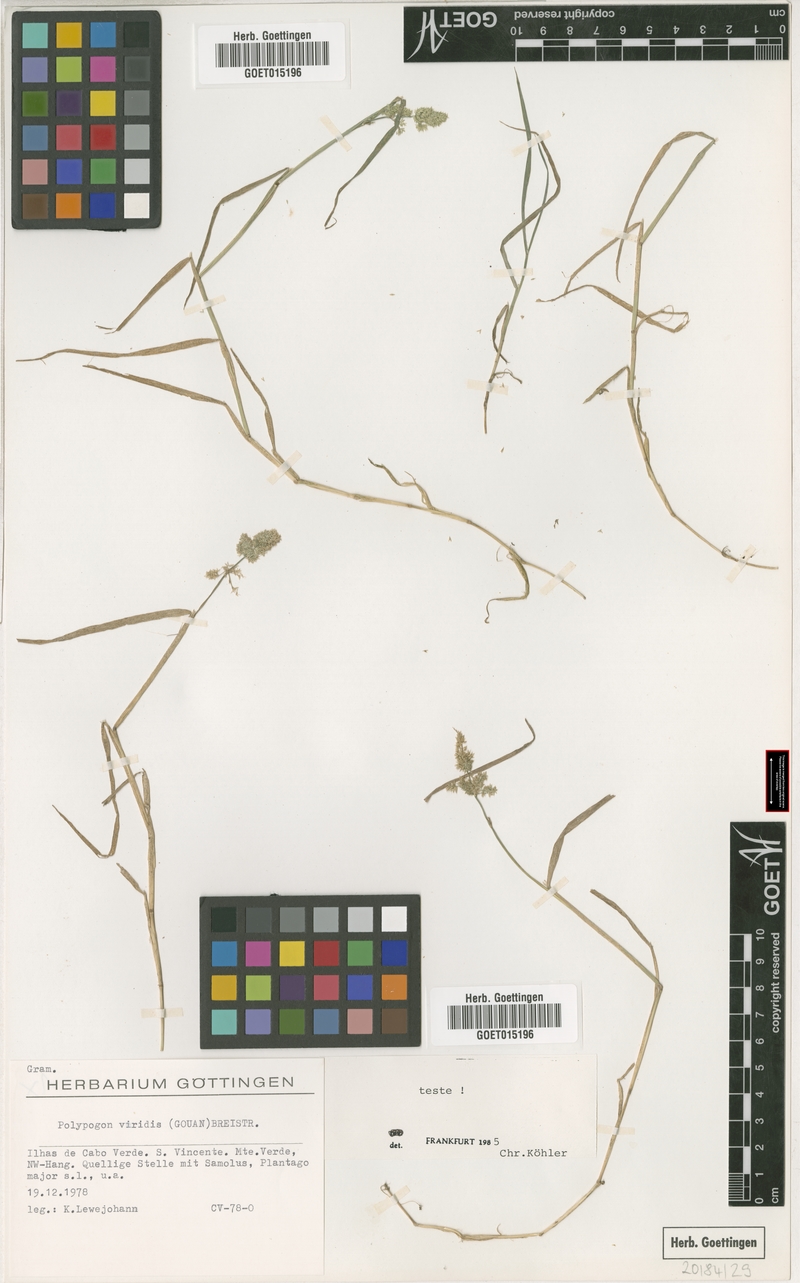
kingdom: Plantae
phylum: Tracheophyta
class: Liliopsida
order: Poales
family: Poaceae
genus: Polypogon
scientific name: Polypogon viridis
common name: Water bent
